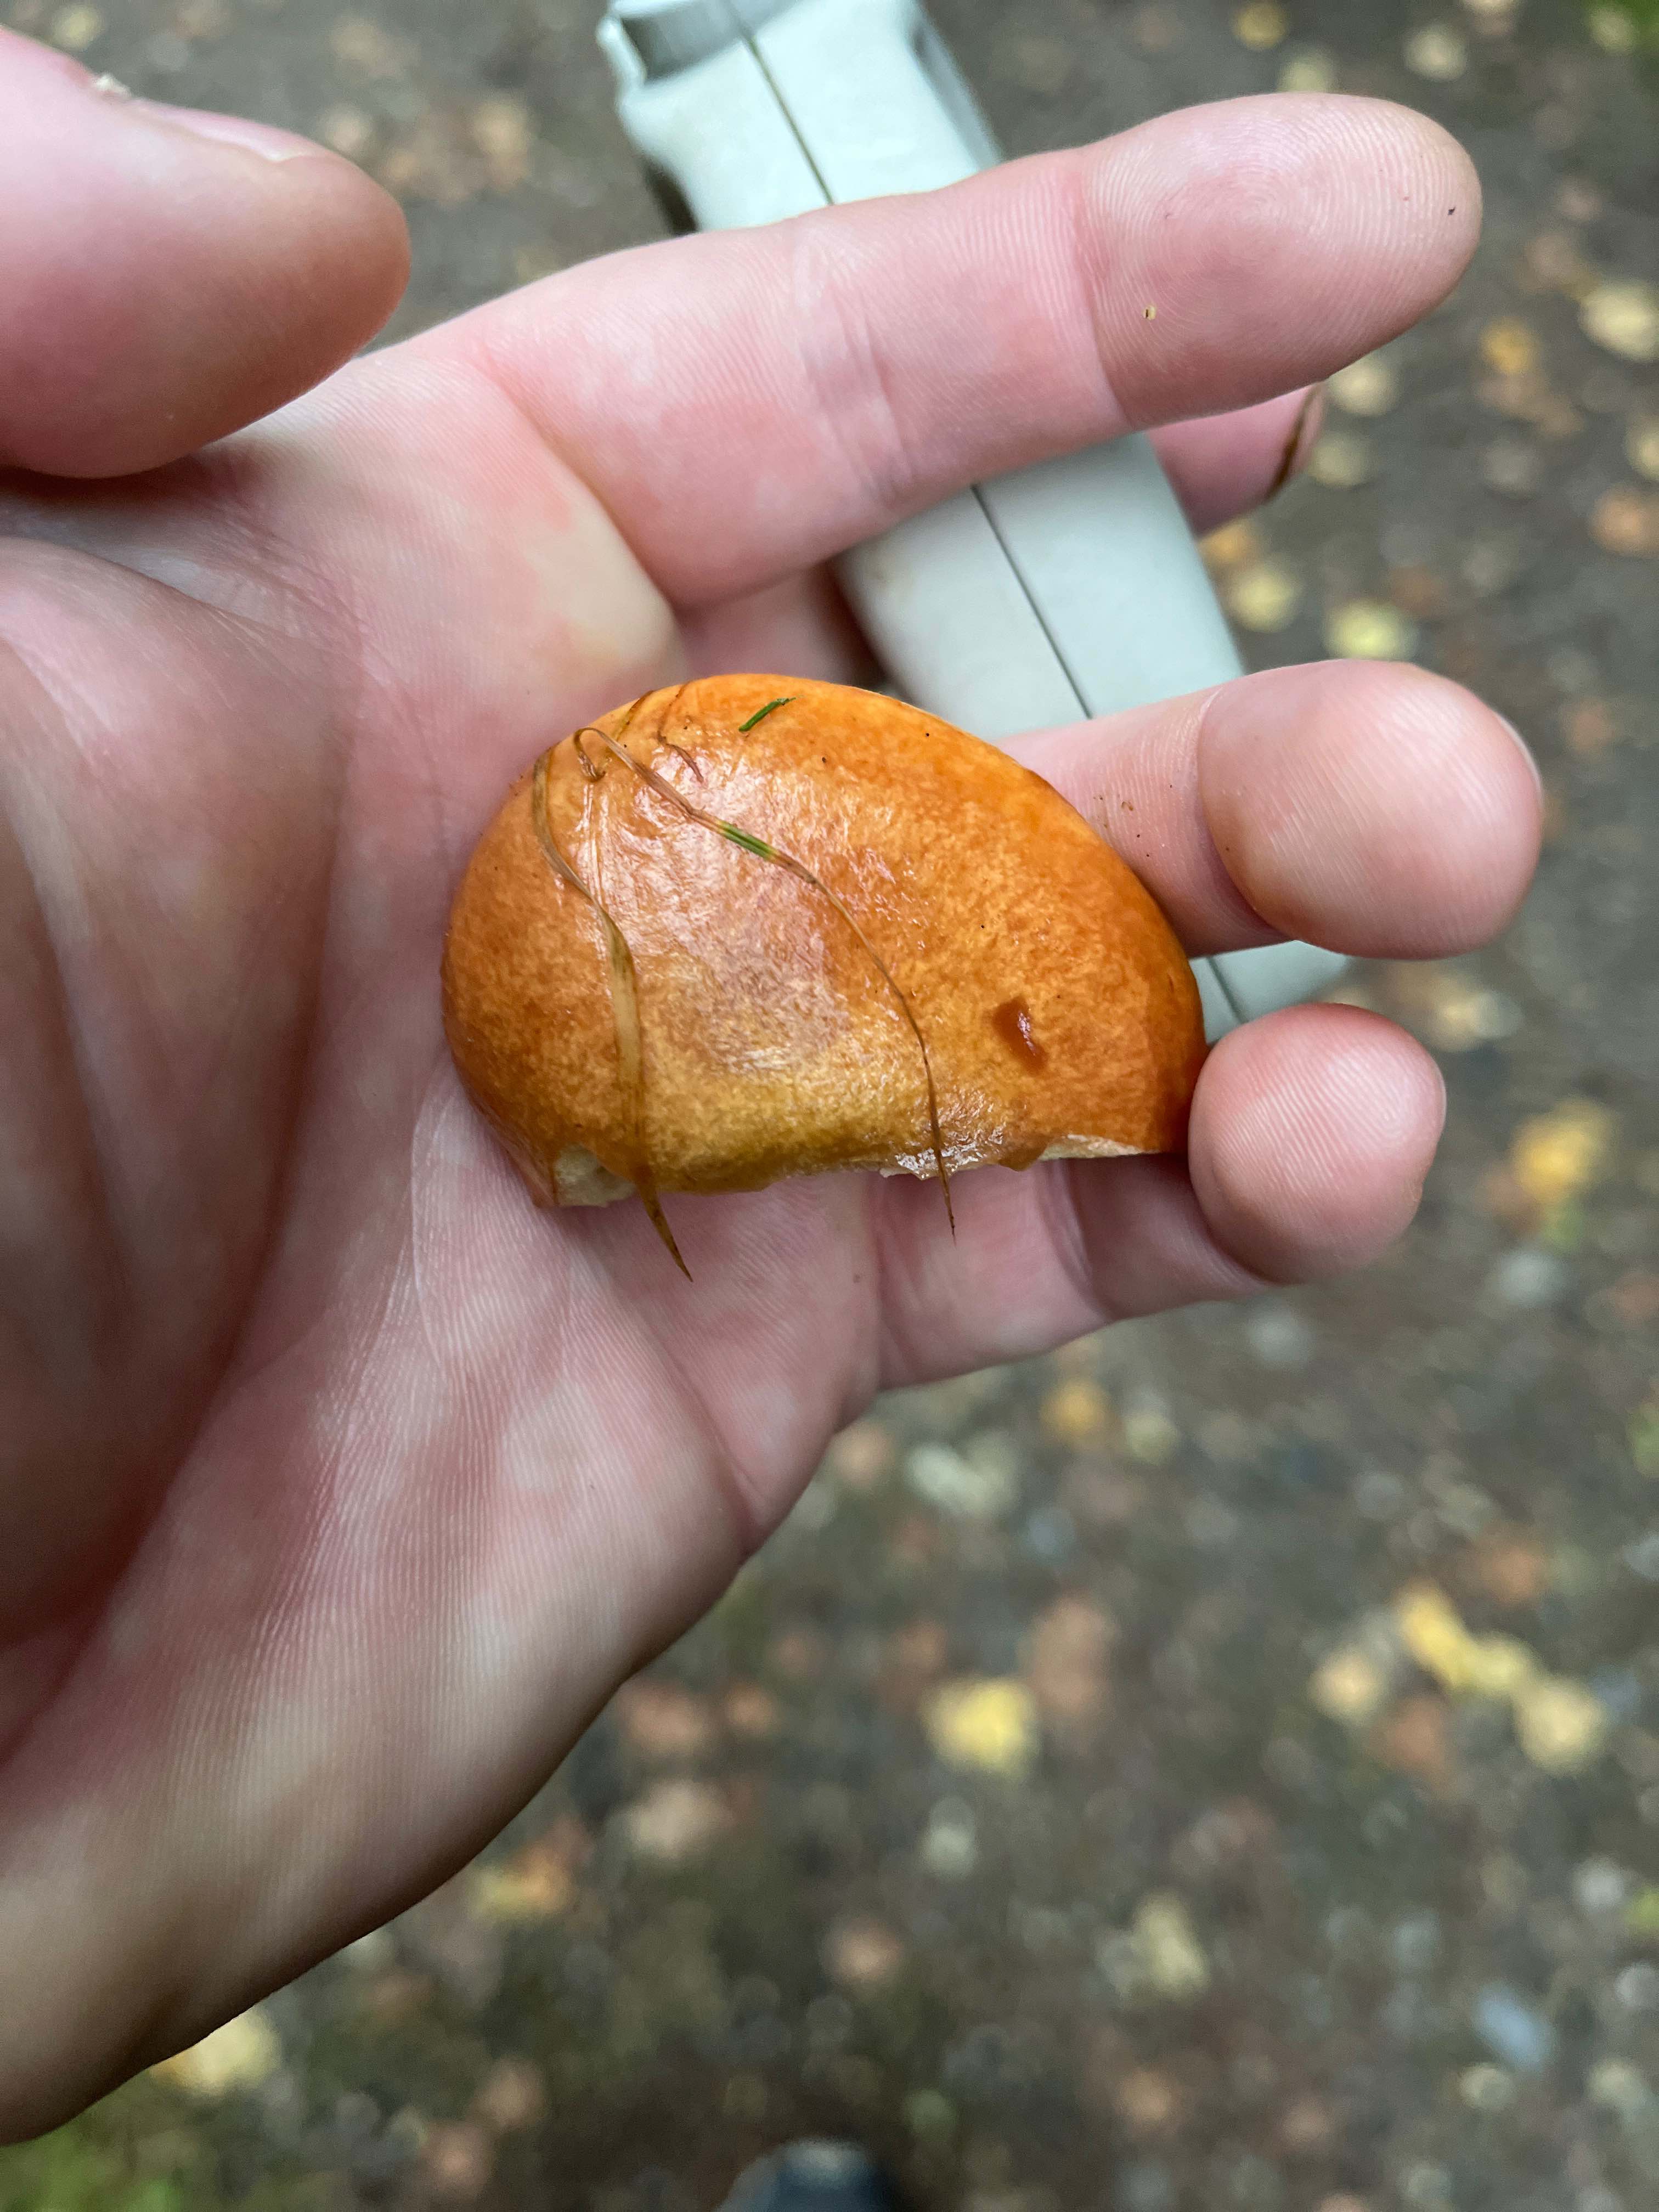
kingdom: Fungi
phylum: Basidiomycota
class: Agaricomycetes
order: Boletales
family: Suillaceae
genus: Suillus
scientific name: Suillus grevillei
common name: lærke-slimrørhat
